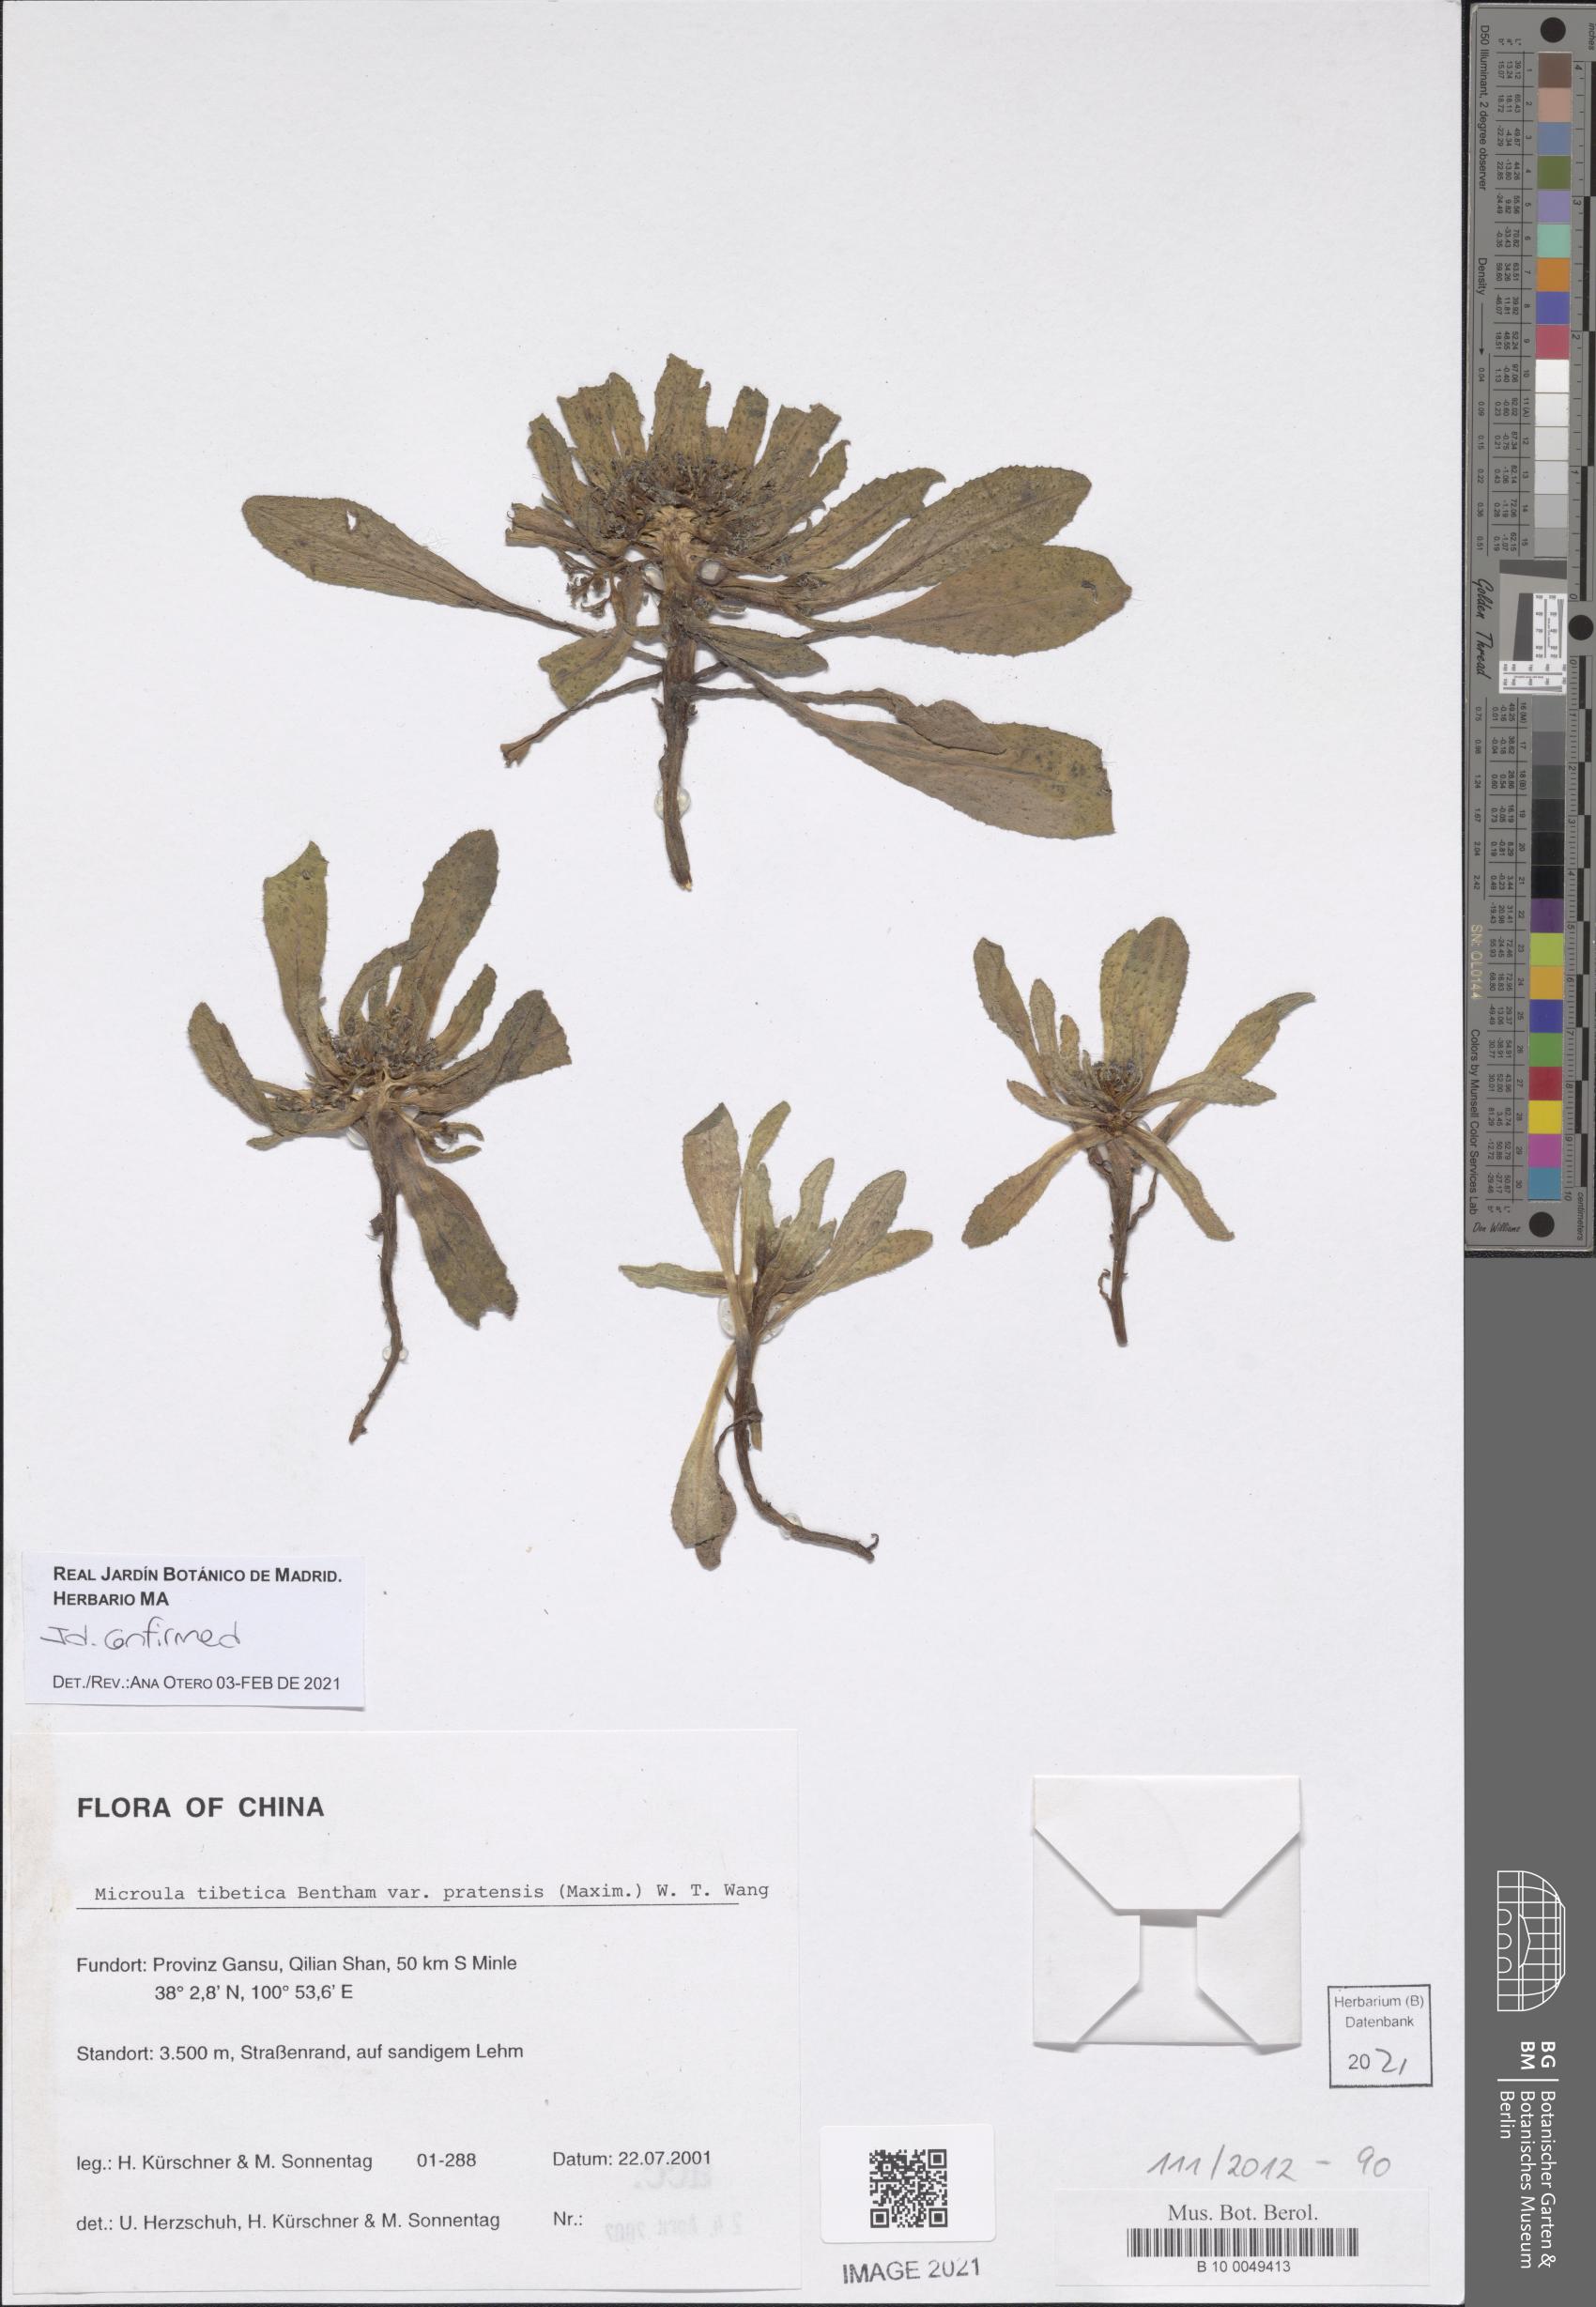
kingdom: Plantae
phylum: Tracheophyta
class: Magnoliopsida
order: Boraginales
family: Boraginaceae
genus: Microula
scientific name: Microula tibetica
